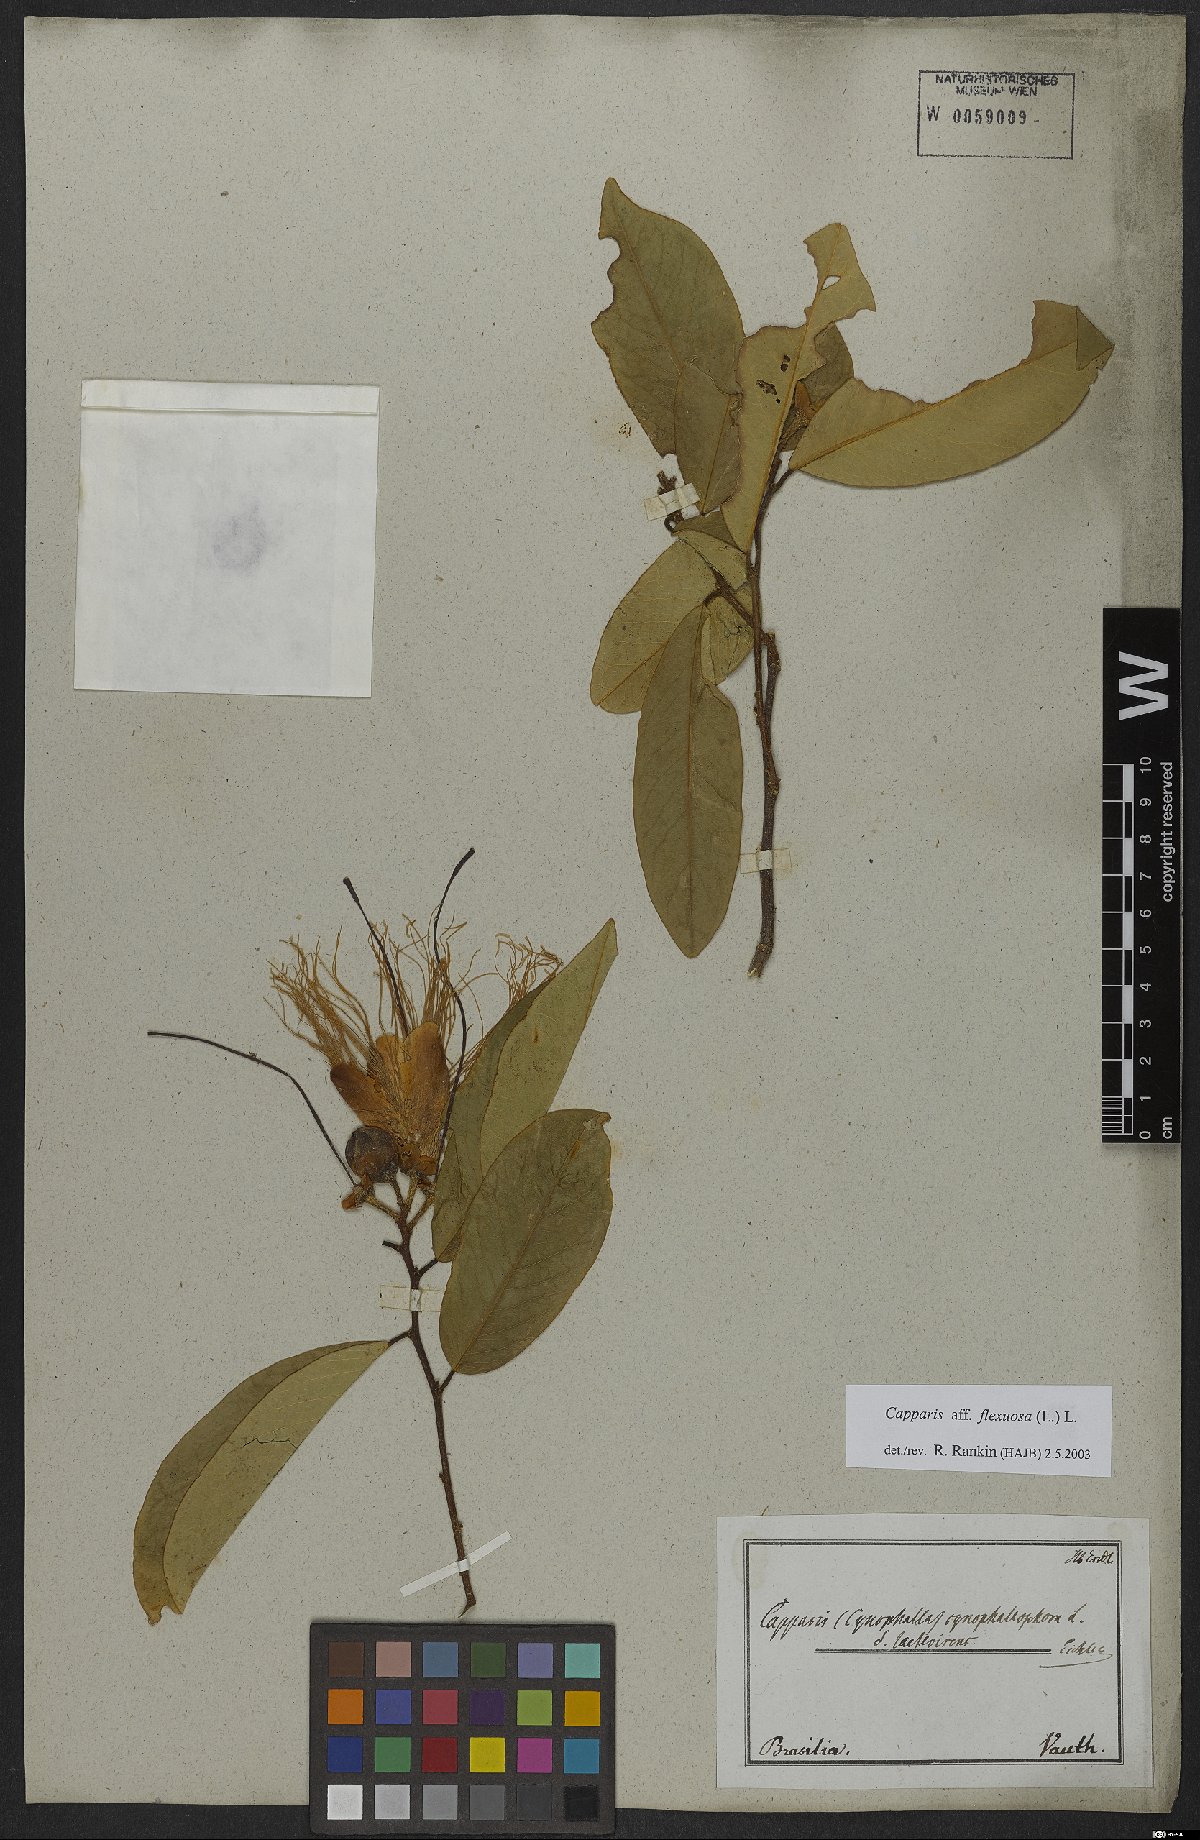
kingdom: Plantae
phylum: Tracheophyta
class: Magnoliopsida
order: Brassicales
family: Capparaceae
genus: Cynophalla
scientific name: Cynophalla flexuosa
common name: Capertree
